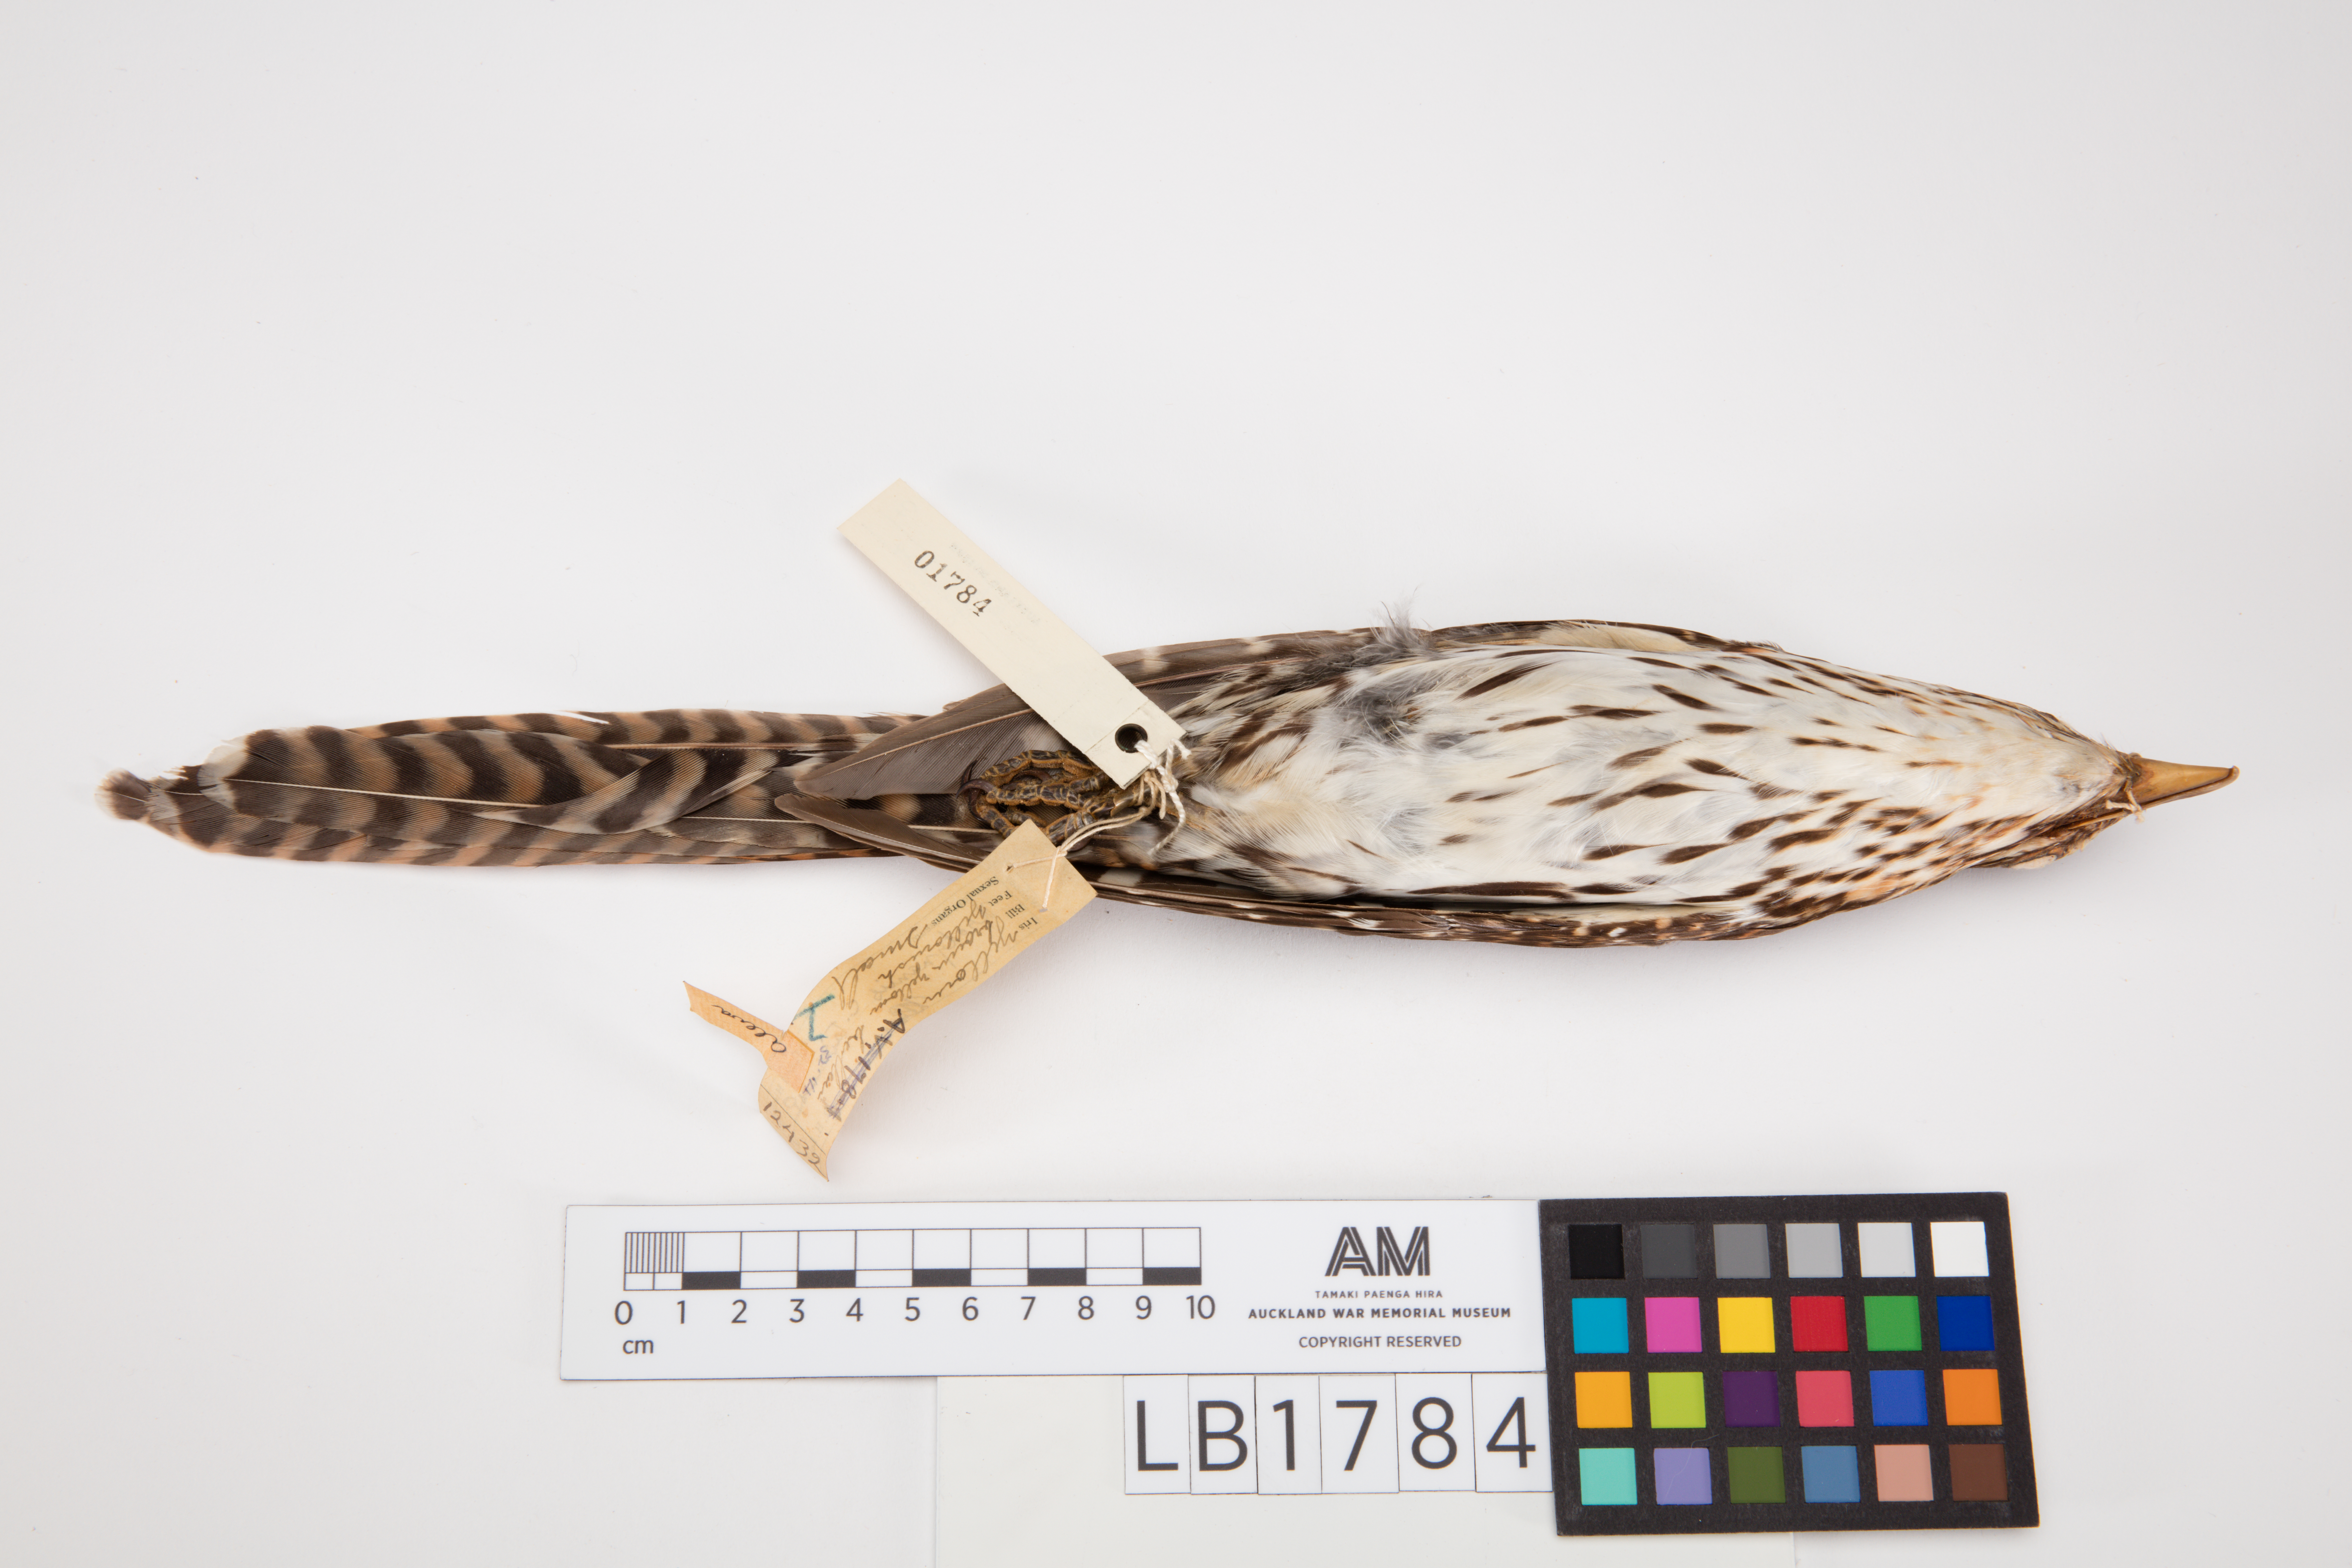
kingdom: Animalia
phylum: Chordata
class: Aves
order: Cuculiformes
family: Cuculidae
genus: Urodynamis
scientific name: Urodynamis taitensis
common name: Long-tailed koel
